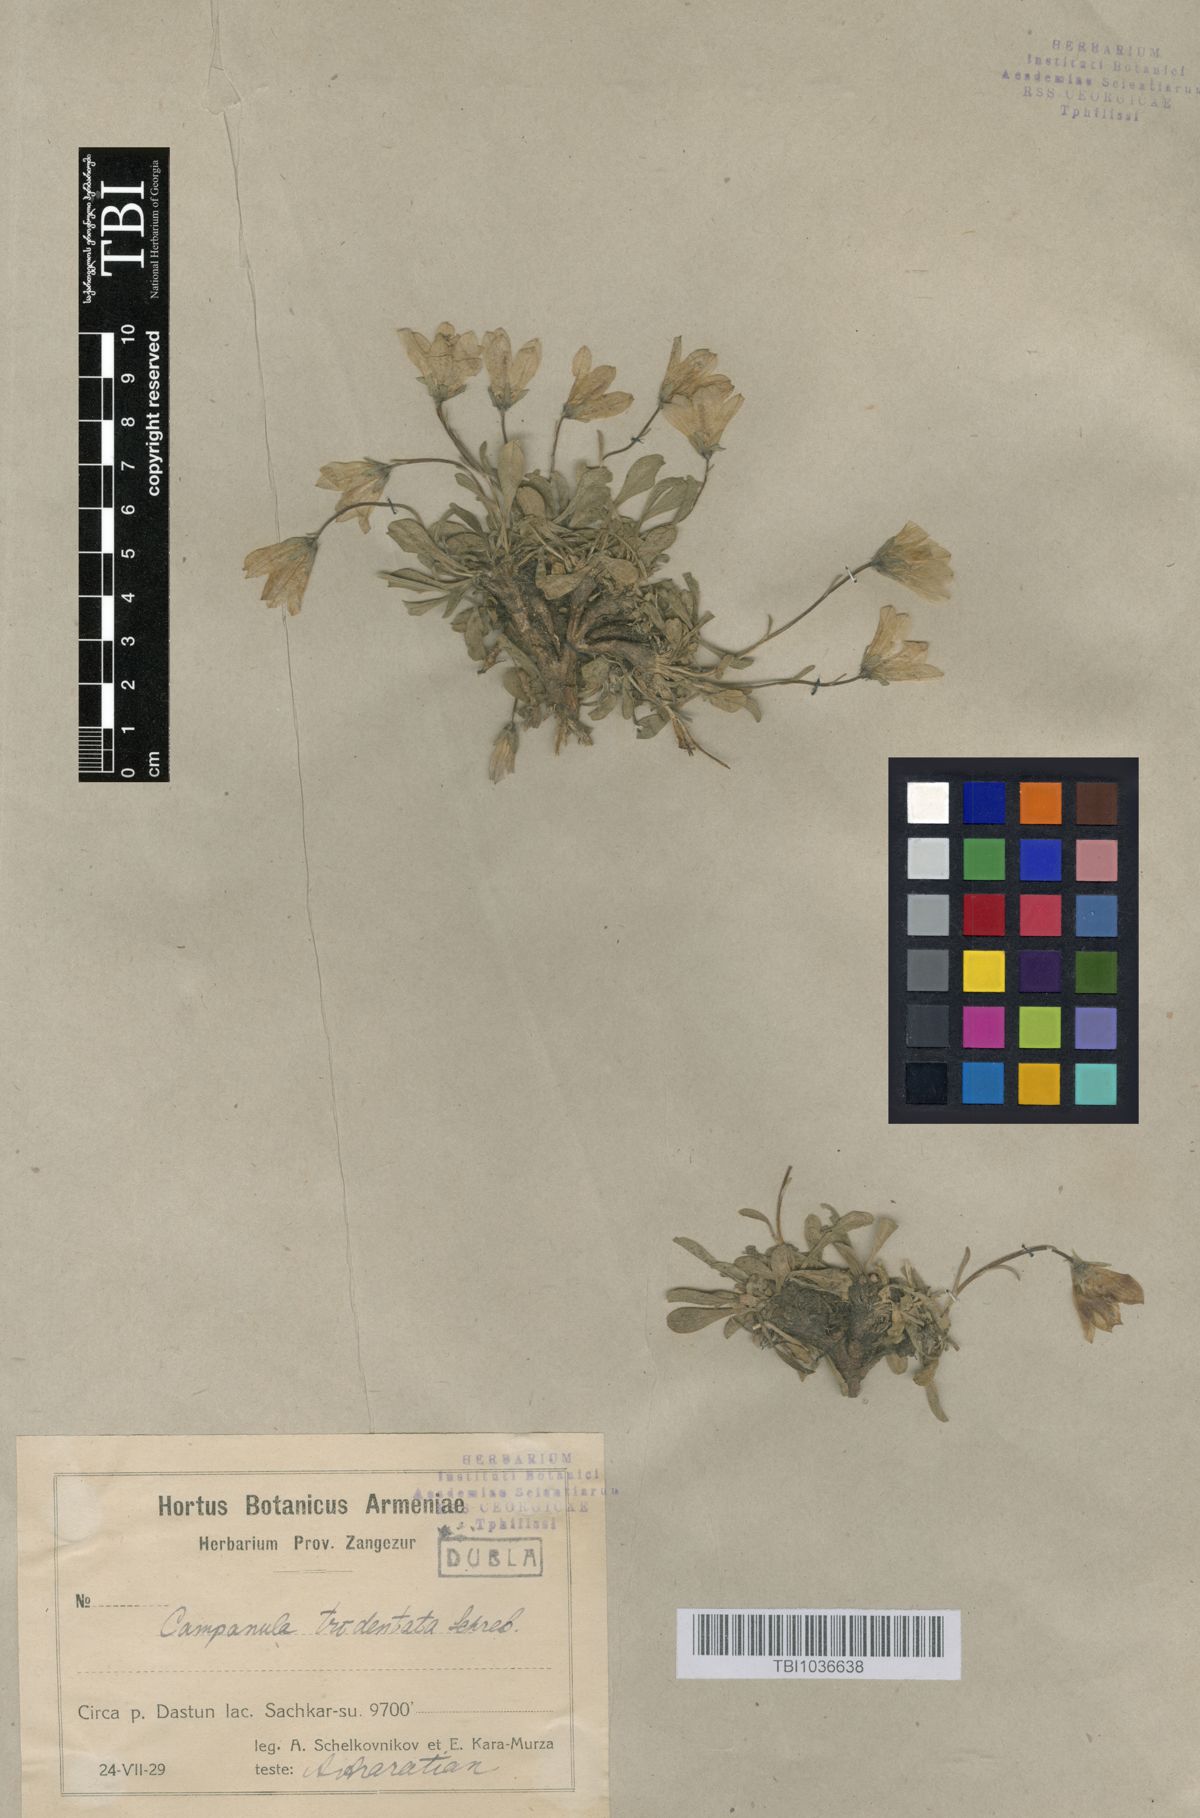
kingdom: Plantae
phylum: Tracheophyta
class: Magnoliopsida
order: Asterales
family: Campanulaceae
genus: Campanula
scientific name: Campanula tridentata
